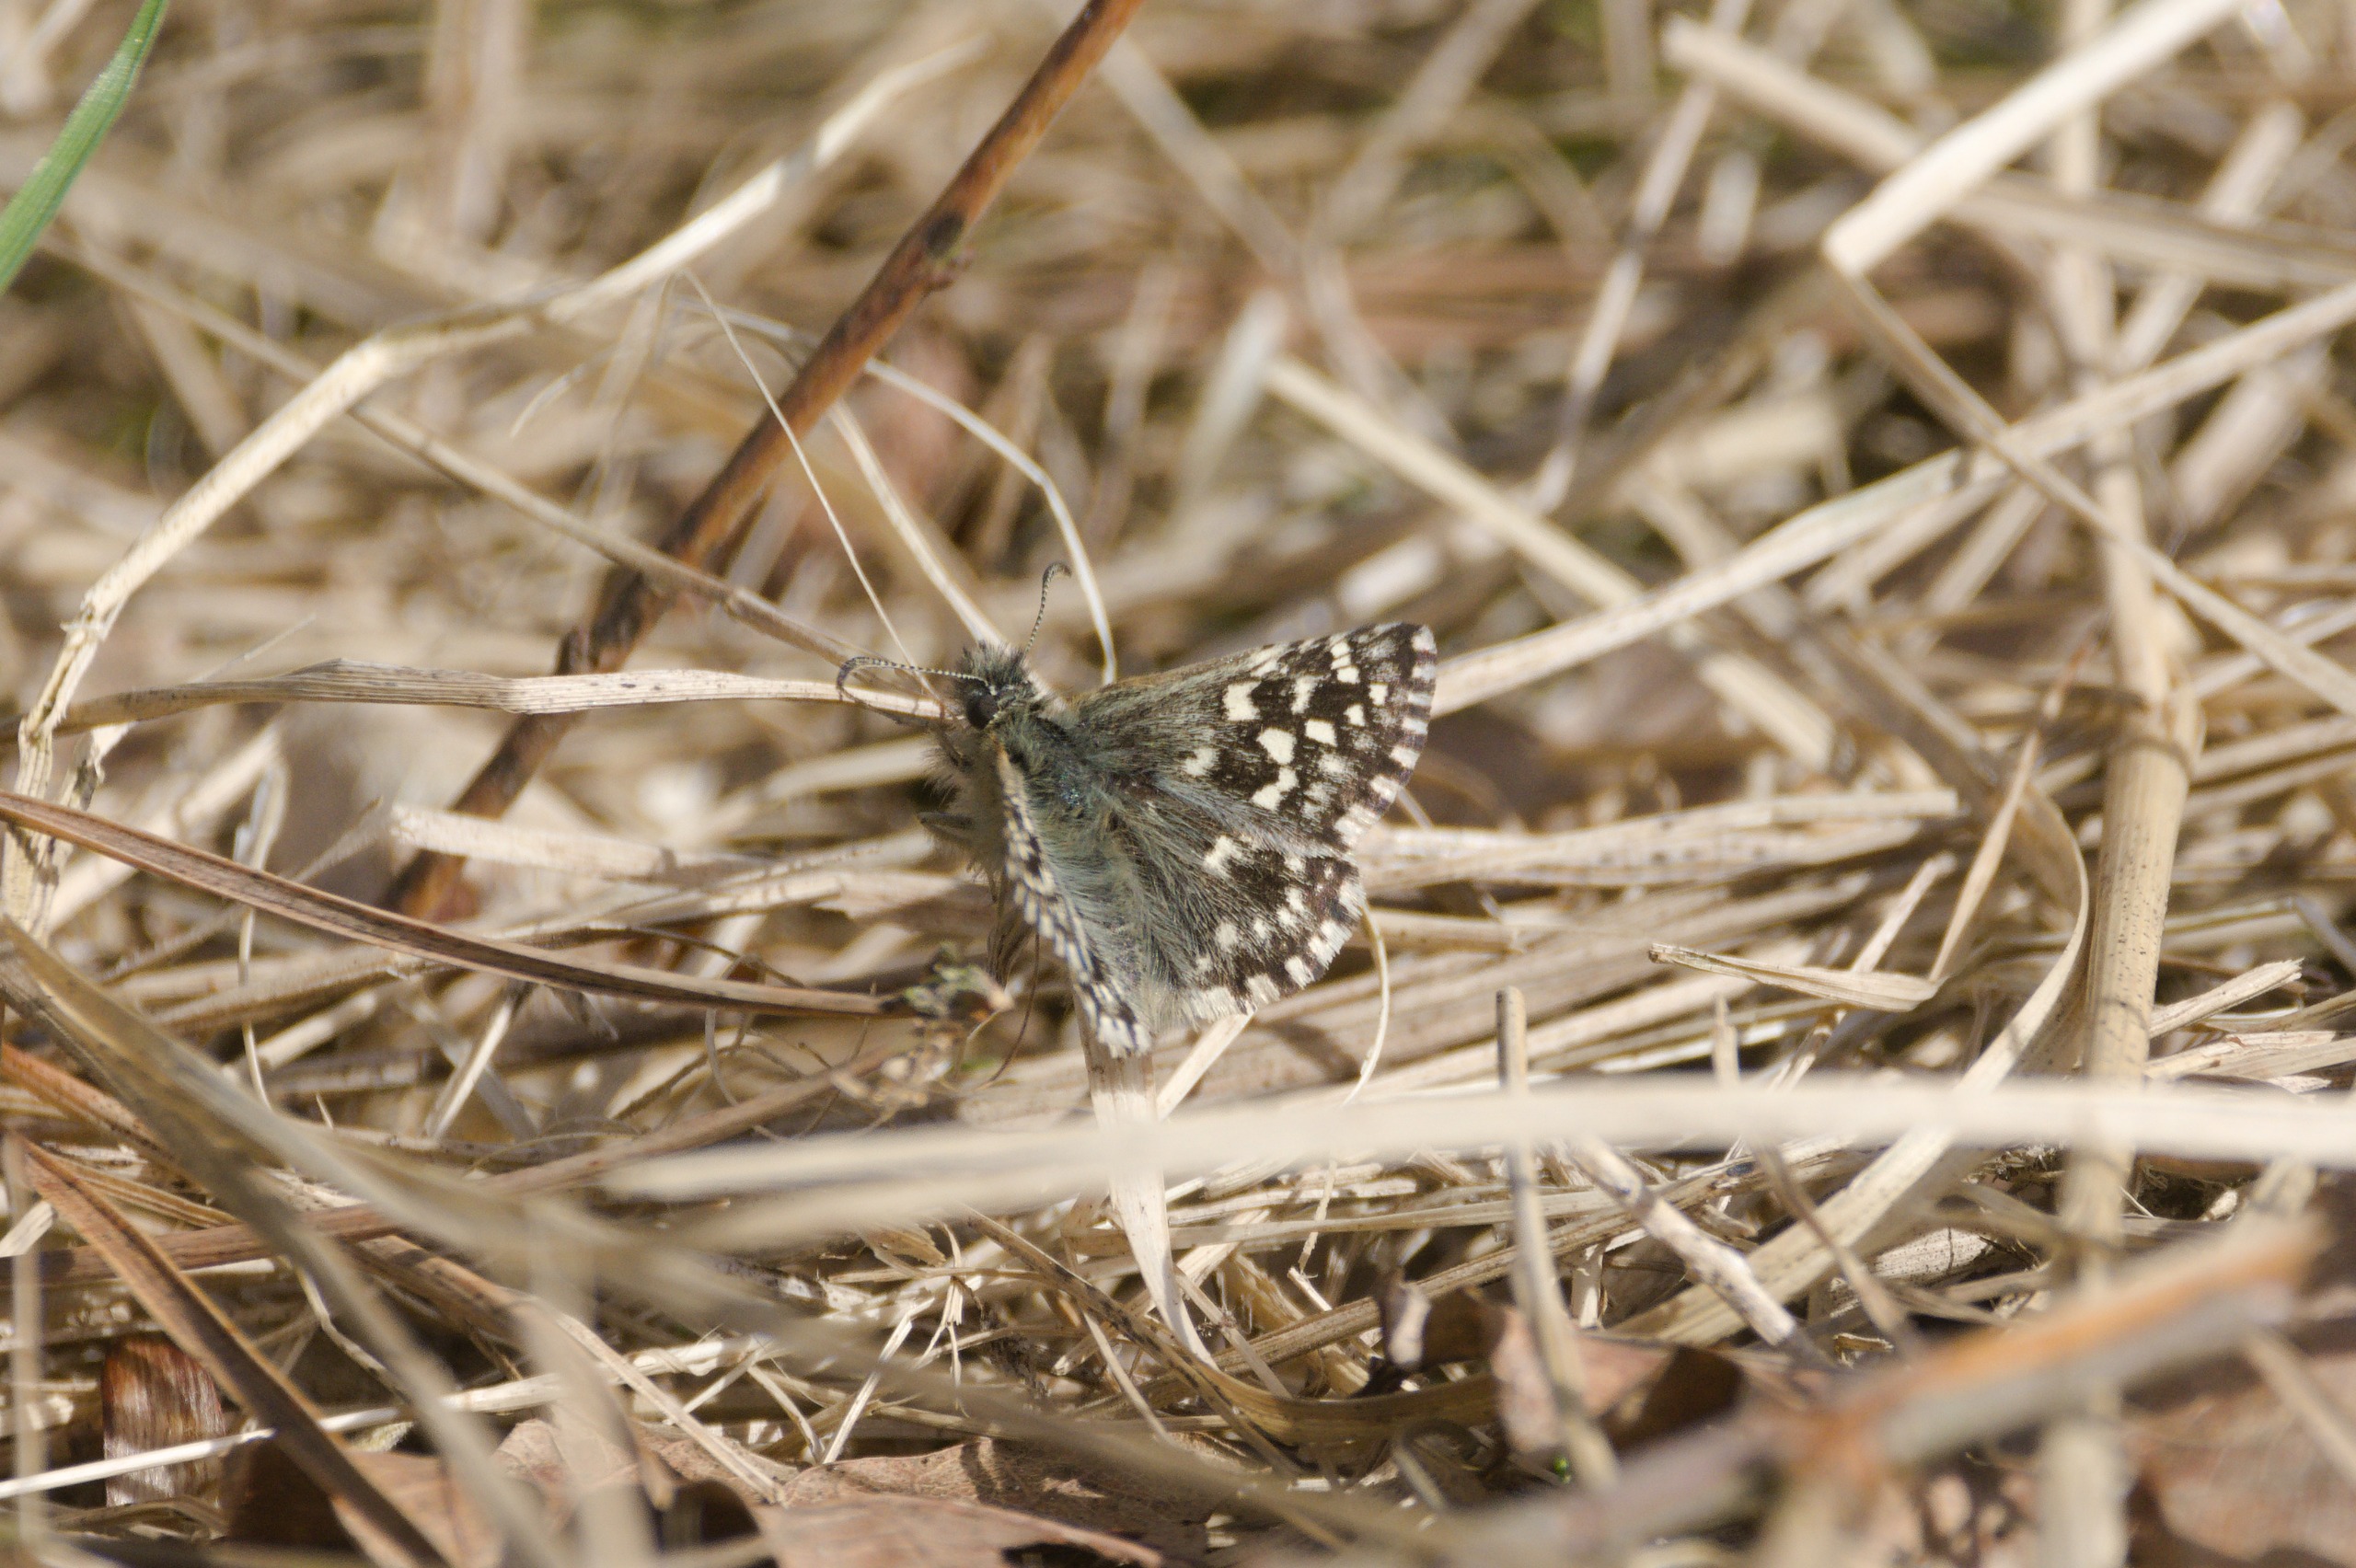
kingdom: Animalia
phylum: Arthropoda
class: Insecta
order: Lepidoptera
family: Hesperiidae
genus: Pyrgus
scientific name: Pyrgus malvae
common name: Spættet bredpande
